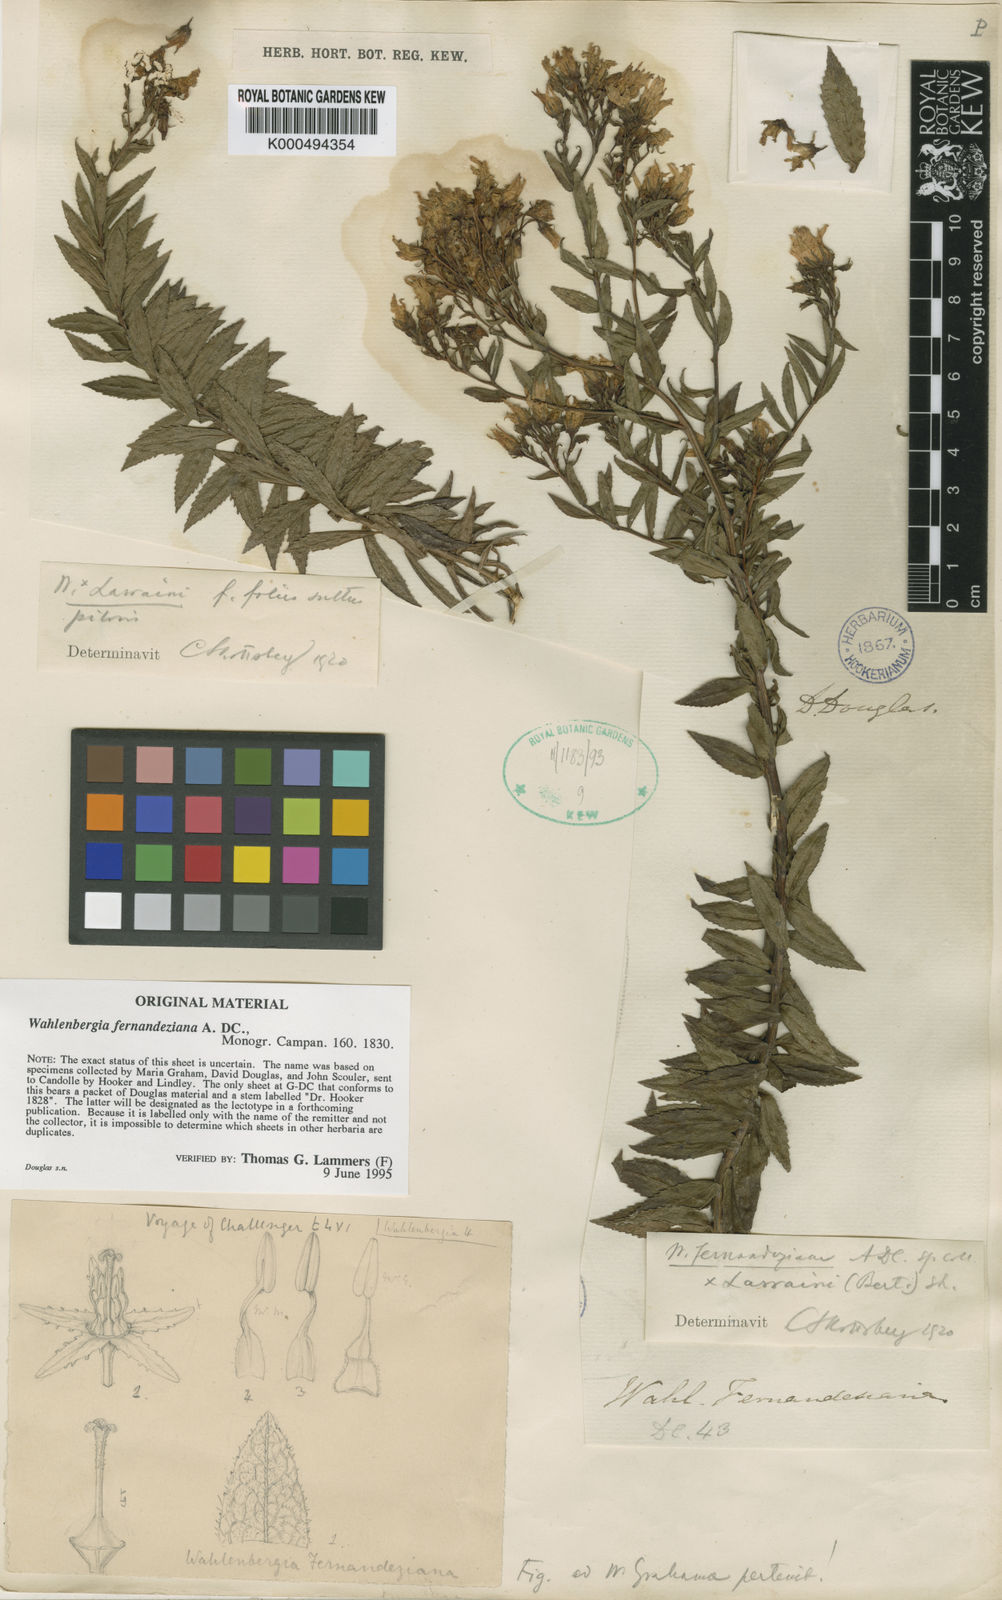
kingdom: Plantae
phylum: Tracheophyta
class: Magnoliopsida
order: Asterales
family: Campanulaceae
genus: Wahlenbergia
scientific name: Wahlenbergia fernandeziana
